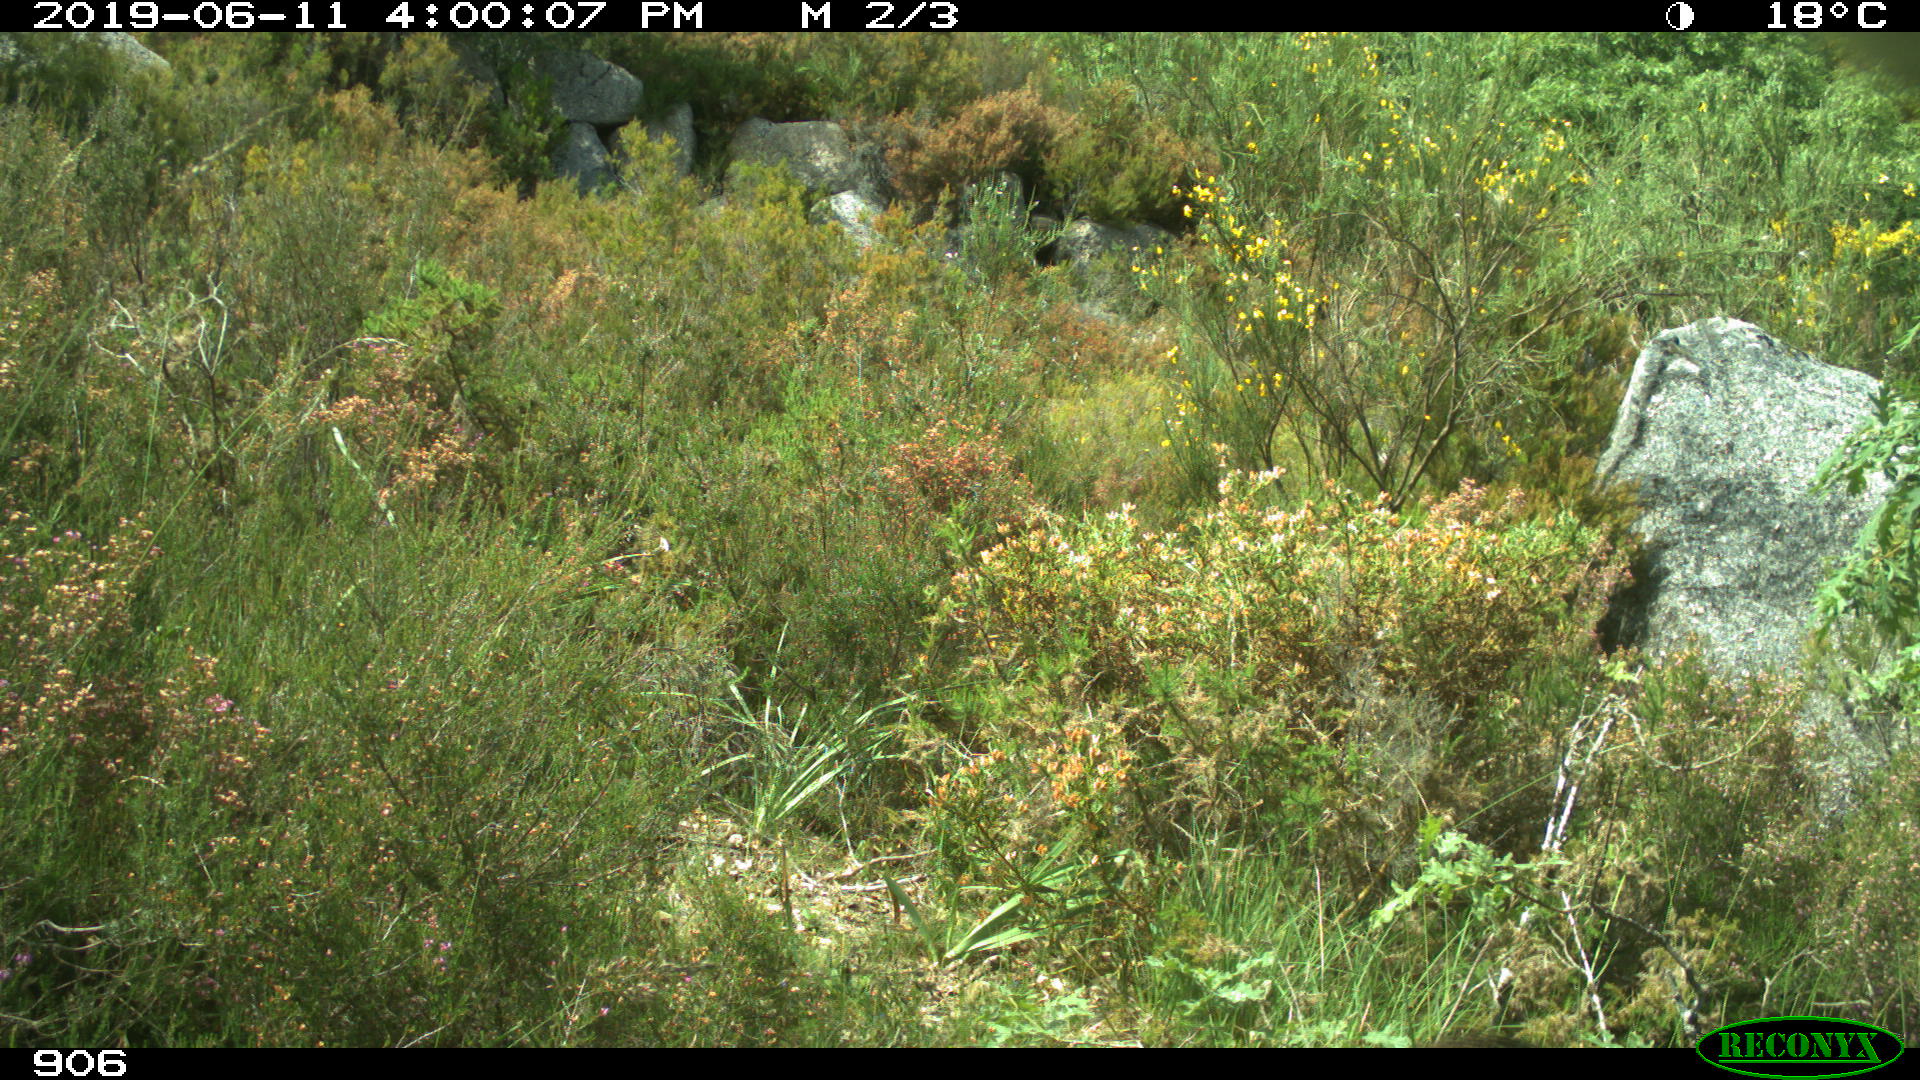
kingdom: Animalia
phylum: Chordata
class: Mammalia
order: Artiodactyla
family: Suidae
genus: Sus
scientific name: Sus scrofa
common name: Wild boar
